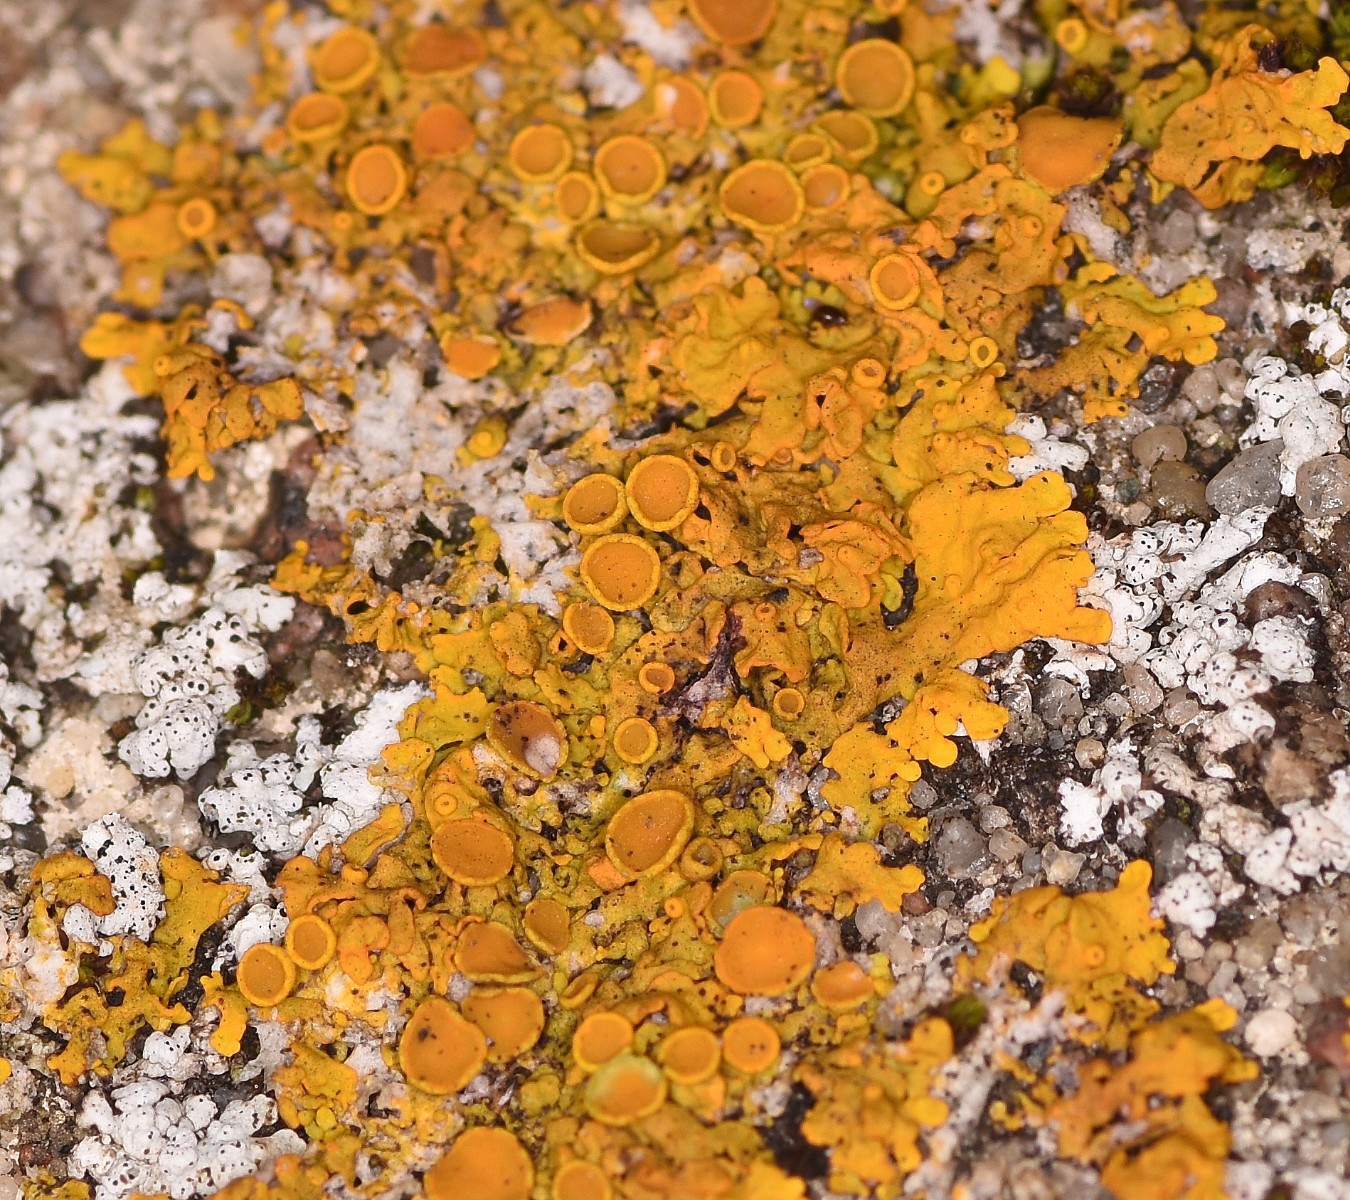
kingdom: Fungi
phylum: Ascomycota
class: Lecanoromycetes
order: Teloschistales
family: Teloschistaceae
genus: Xanthoria
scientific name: Xanthoria parietina
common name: almindelig væggelav
